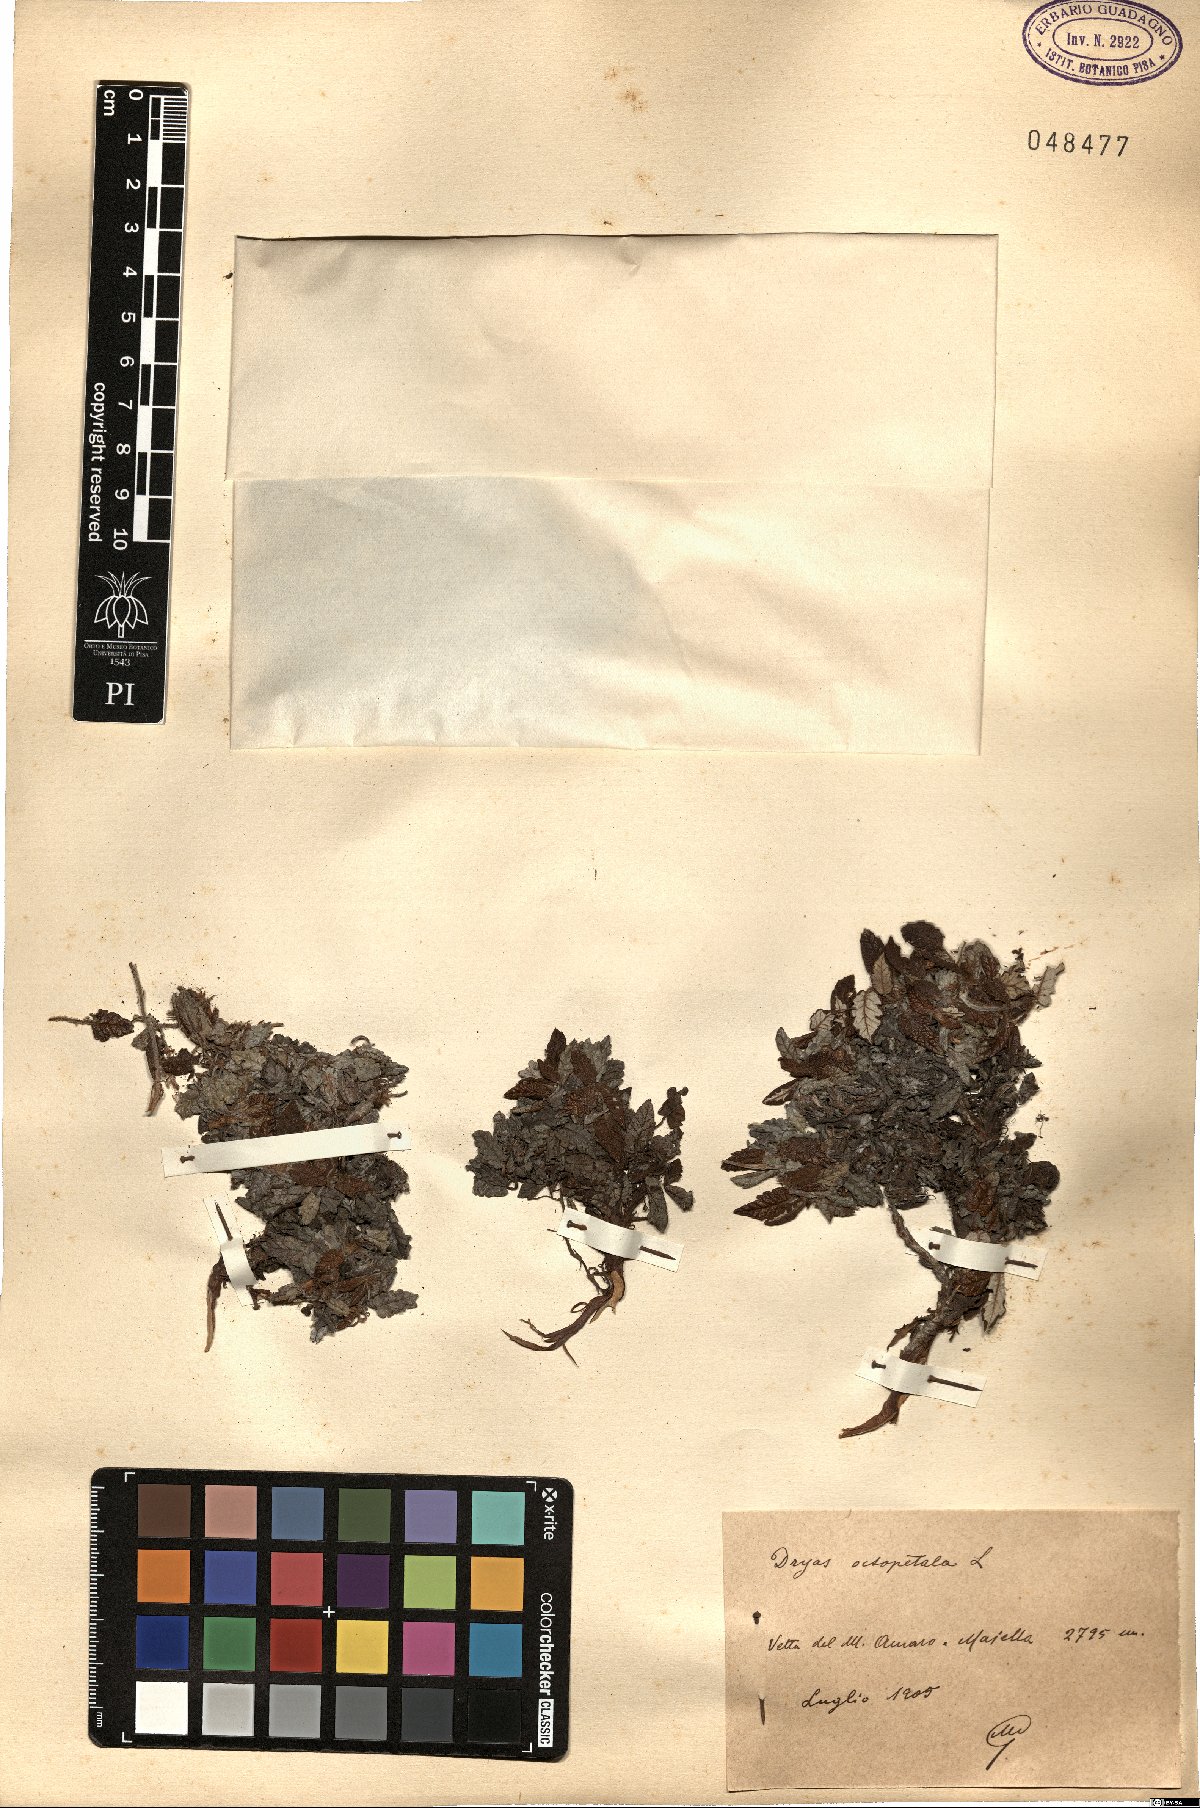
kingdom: Plantae
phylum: Tracheophyta
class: Magnoliopsida
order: Rosales
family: Rosaceae
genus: Dryas
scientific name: Dryas octopetala
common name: Eight-petal mountain-avens
